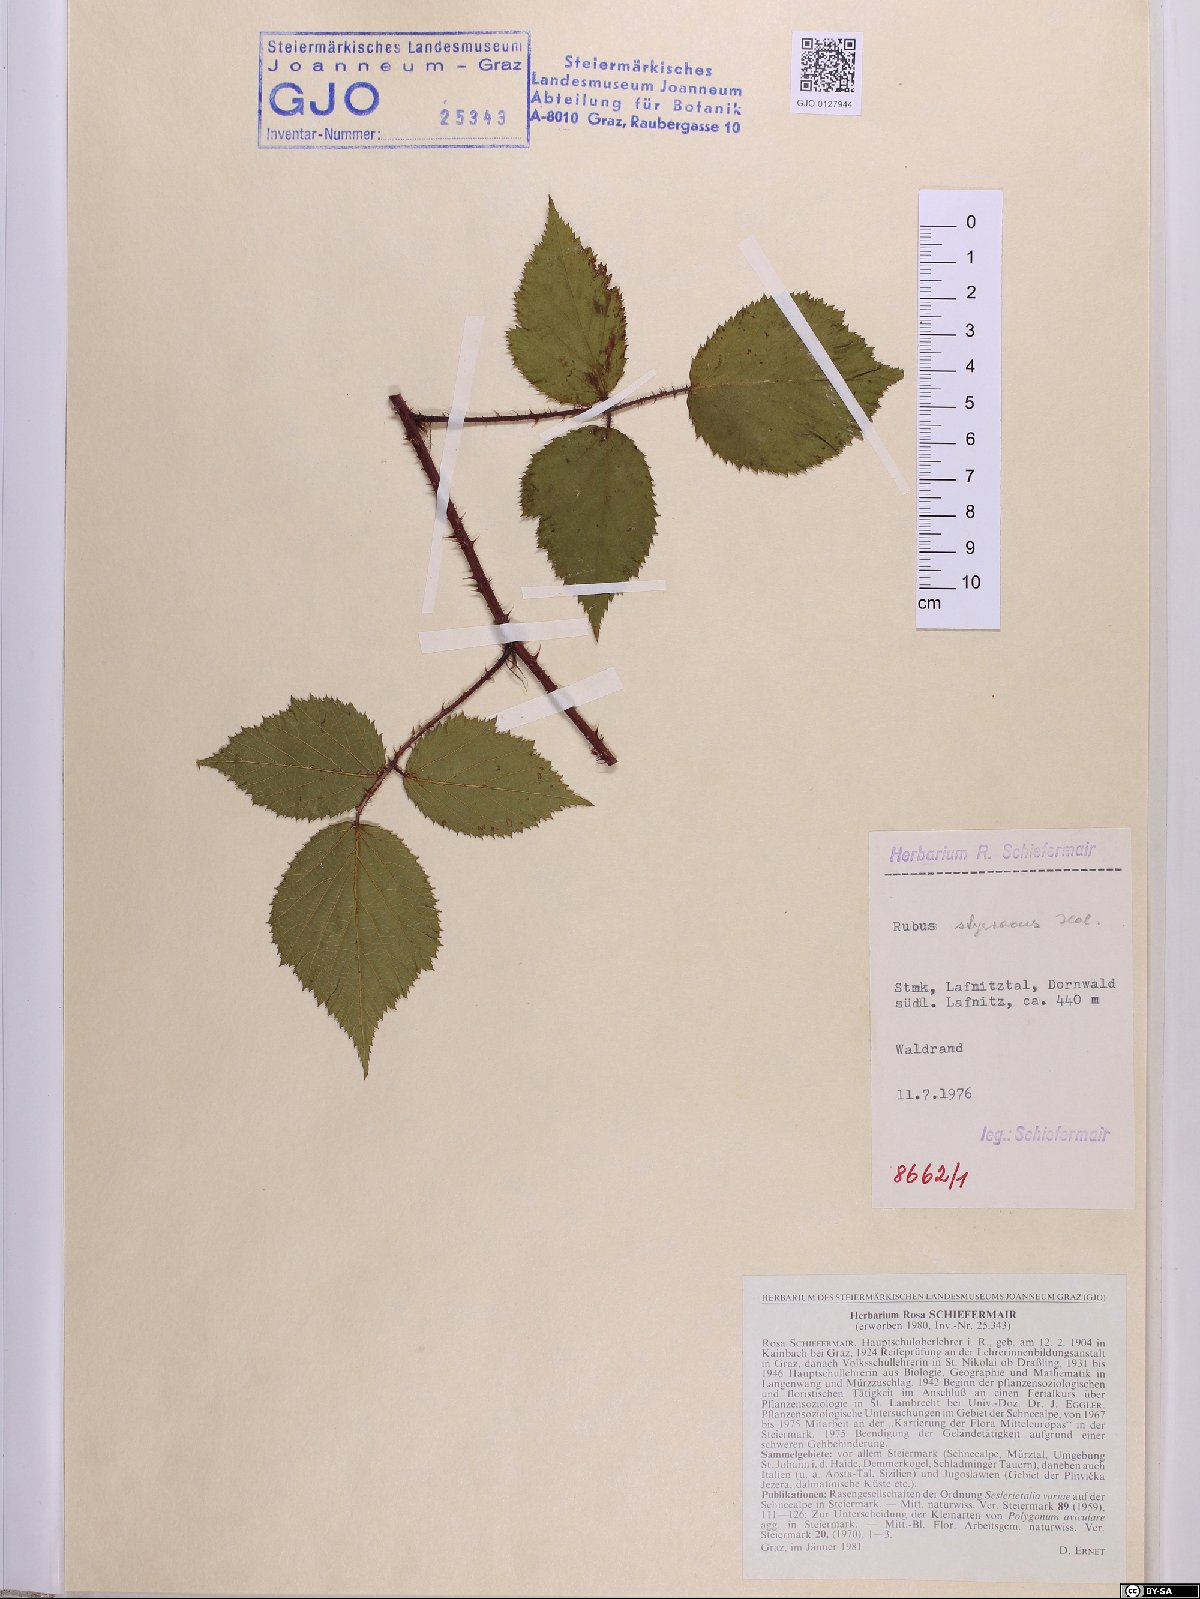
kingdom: Plantae
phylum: Tracheophyta
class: Magnoliopsida
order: Rosales
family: Rosaceae
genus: Rubus
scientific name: Rubus styriacus
